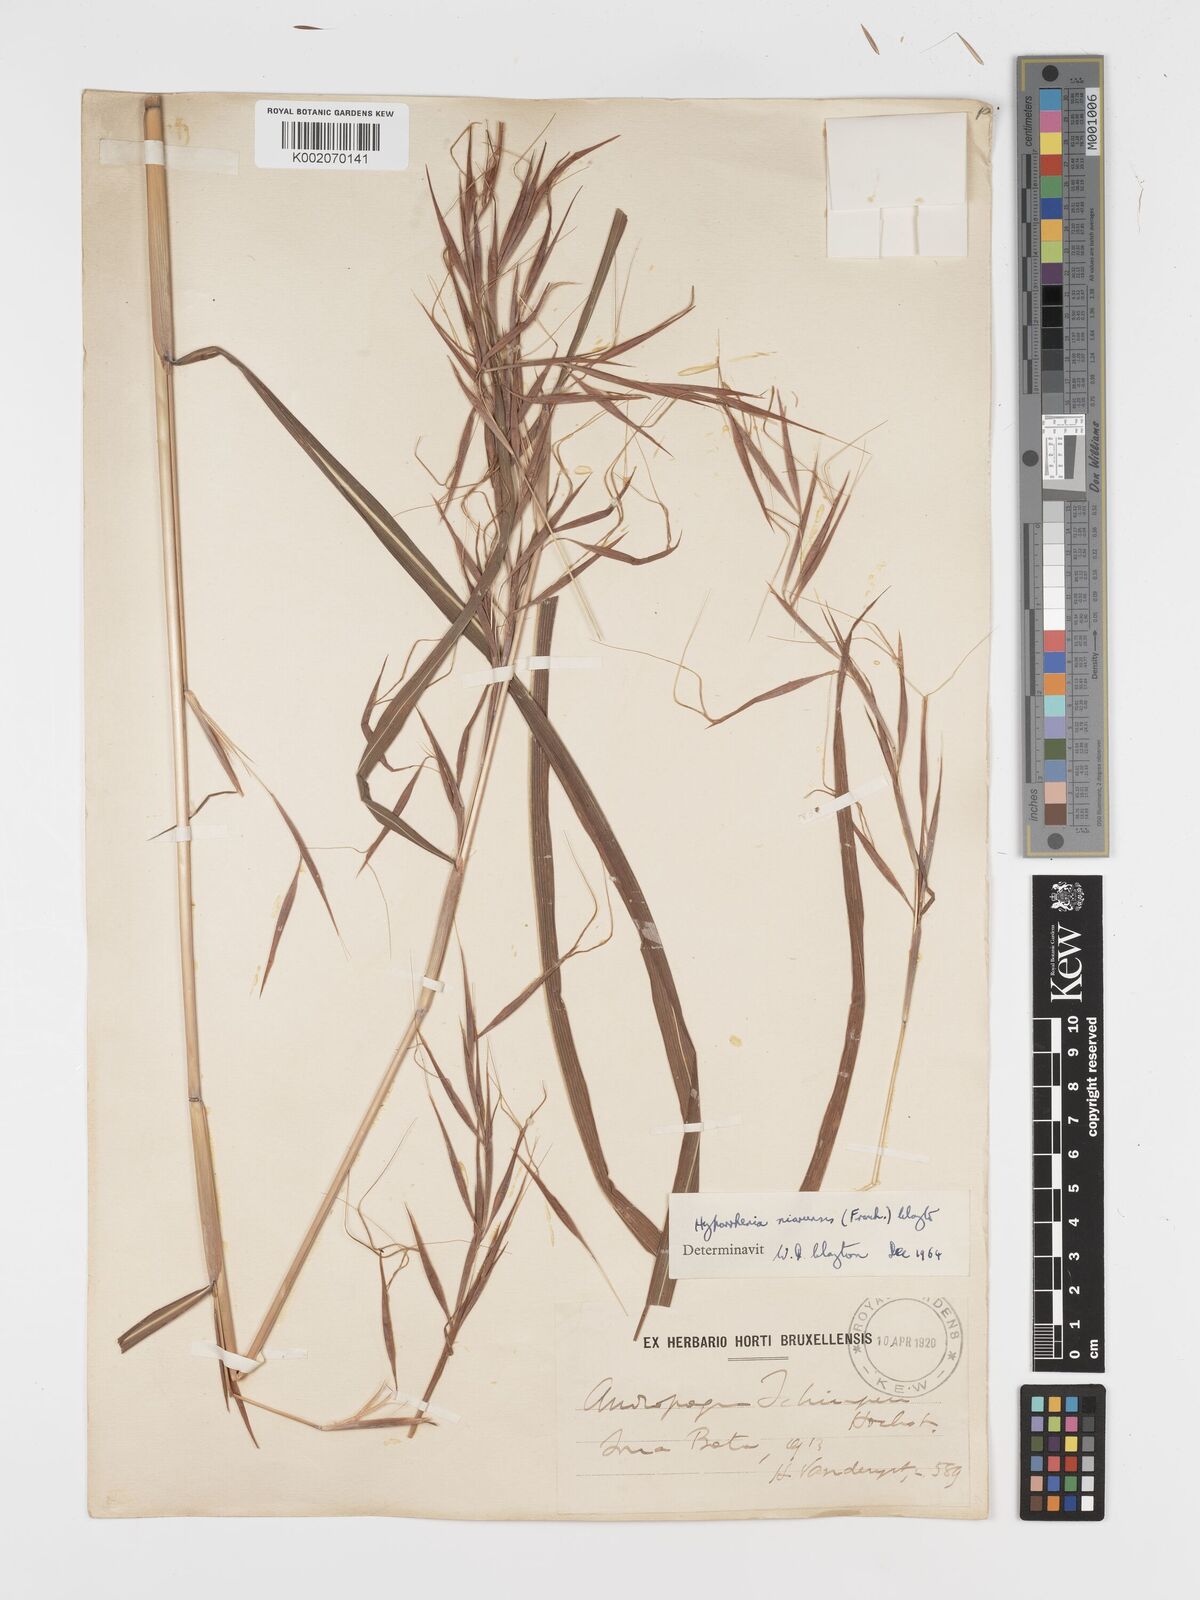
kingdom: Plantae
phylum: Tracheophyta
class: Liliopsida
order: Poales
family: Poaceae
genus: Hyparrhenia
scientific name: Hyparrhenia niariensis
